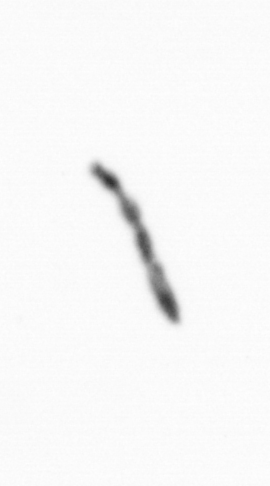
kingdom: Chromista
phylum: Ochrophyta
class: Bacillariophyceae
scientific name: Bacillariophyceae
